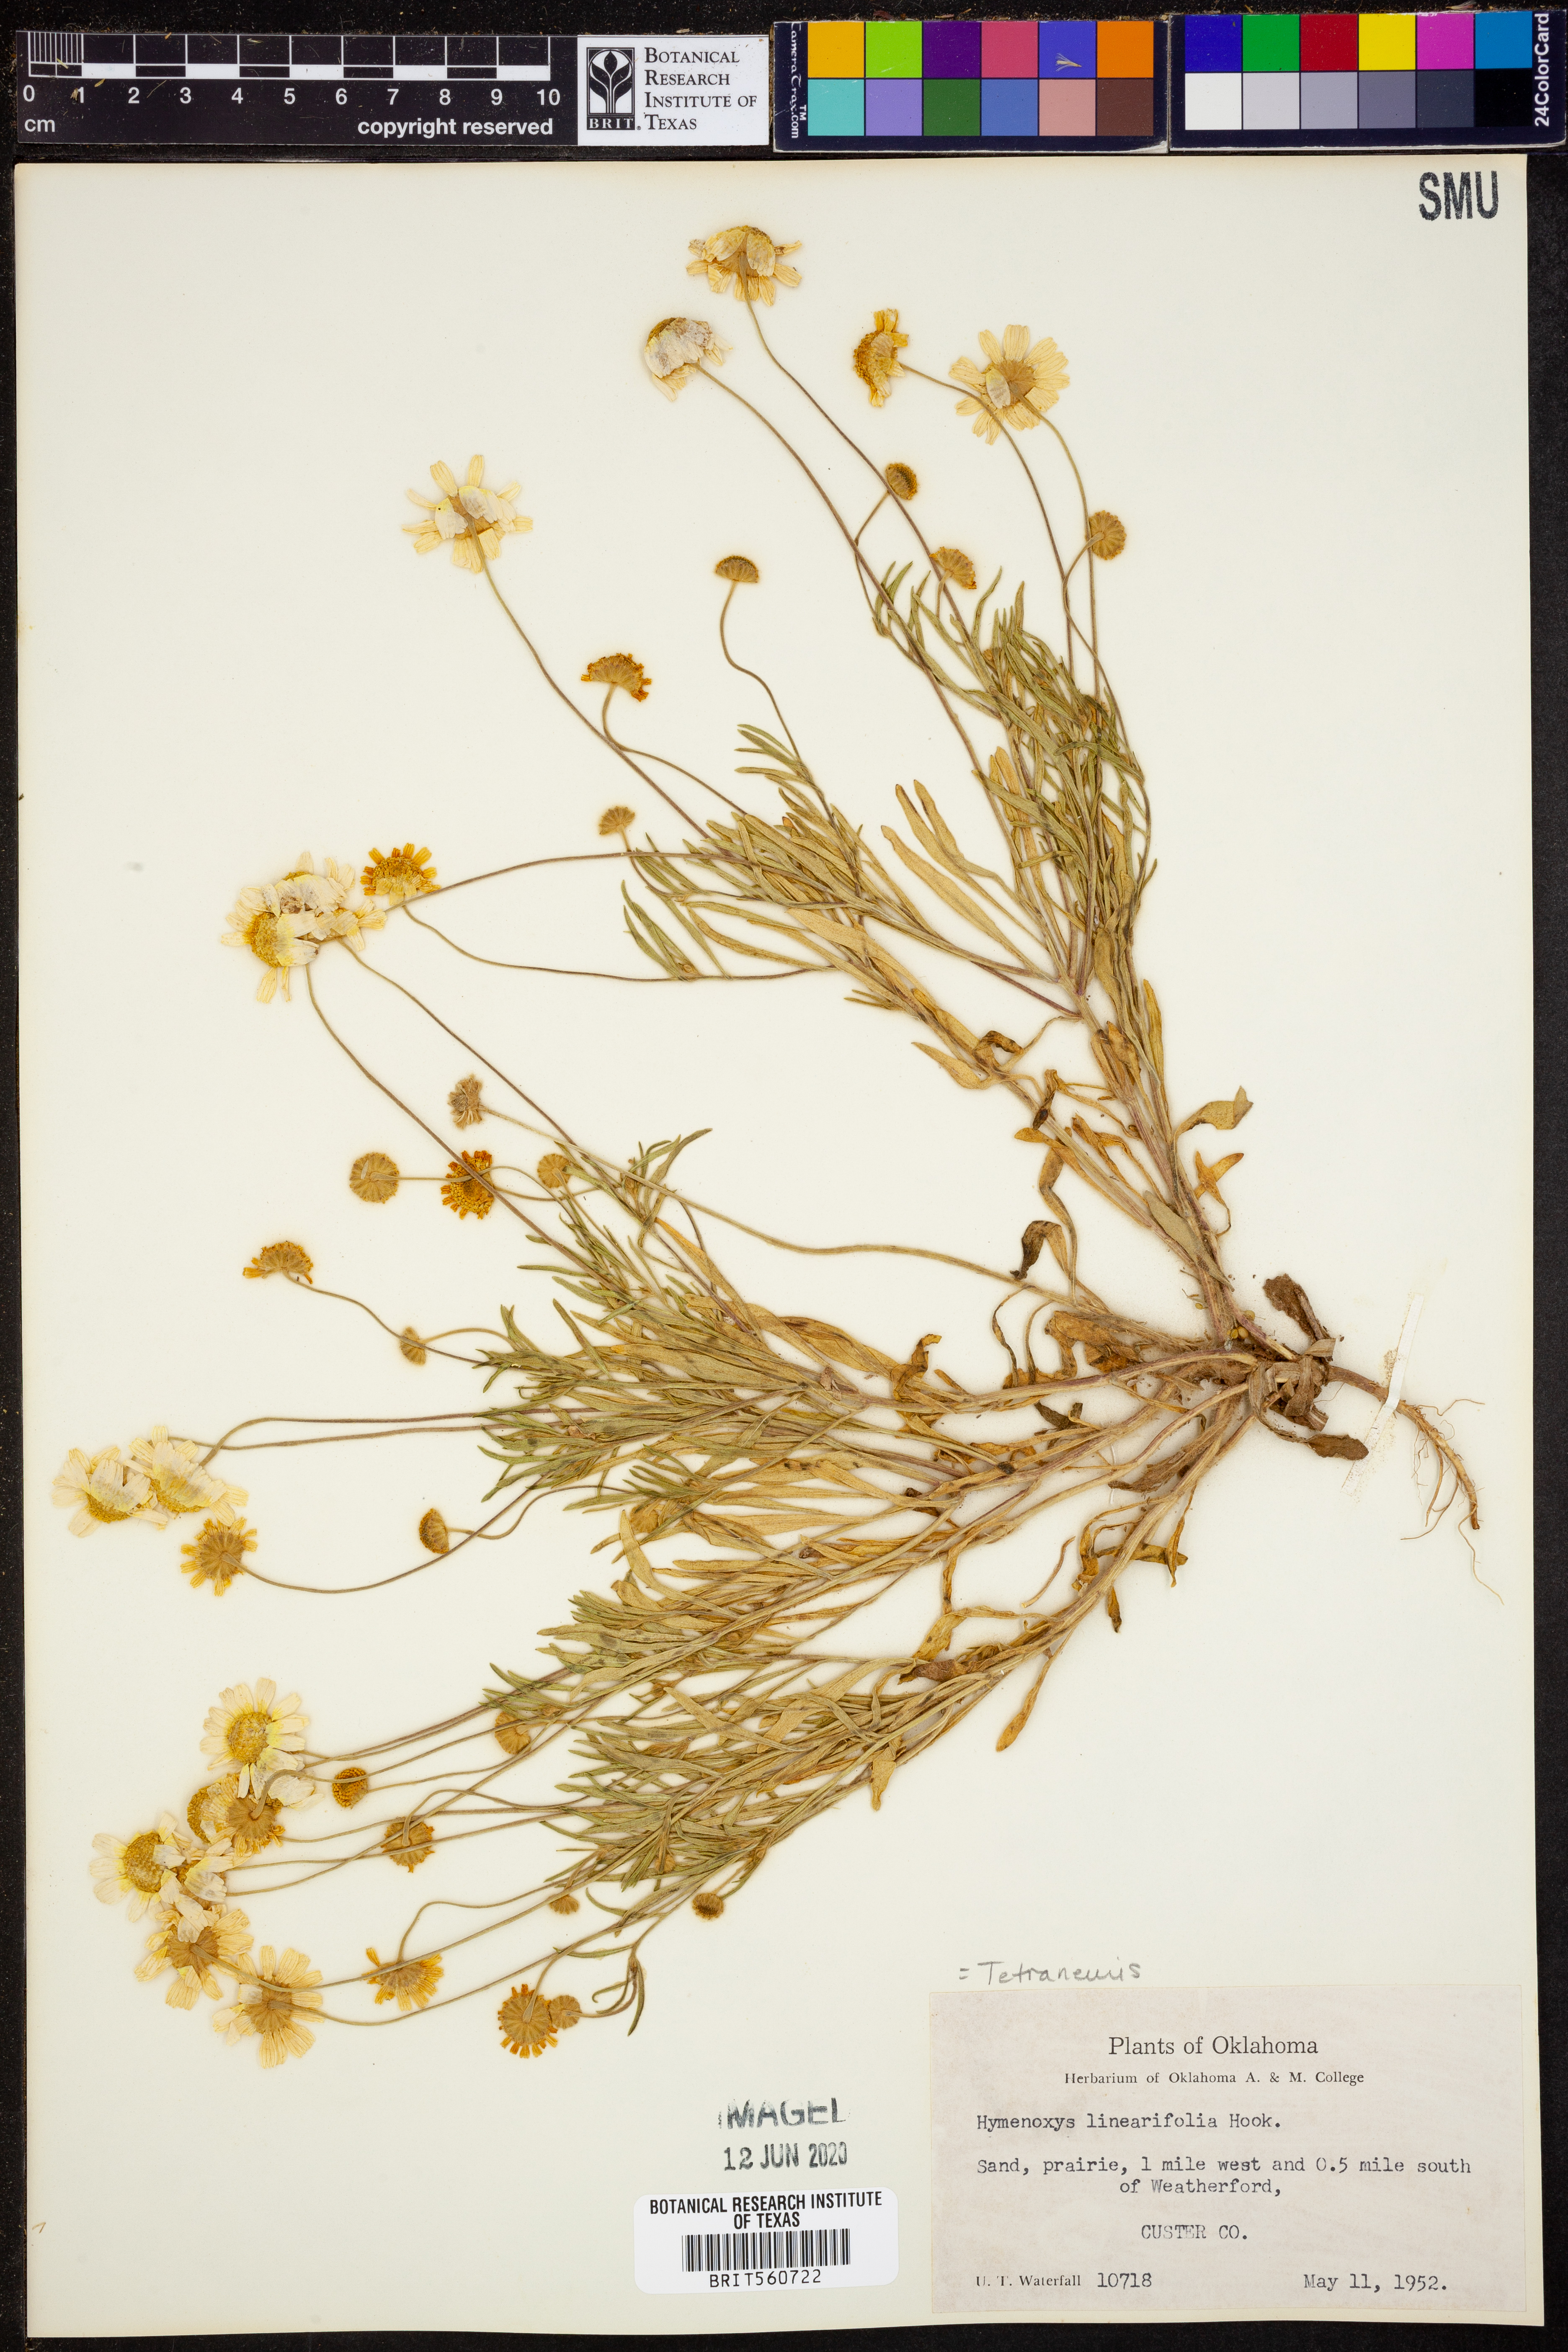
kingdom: Plantae
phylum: Tracheophyta
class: Magnoliopsida
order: Asterales
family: Asteraceae
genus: Tetraneuris
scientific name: Tetraneuris linearifolia
